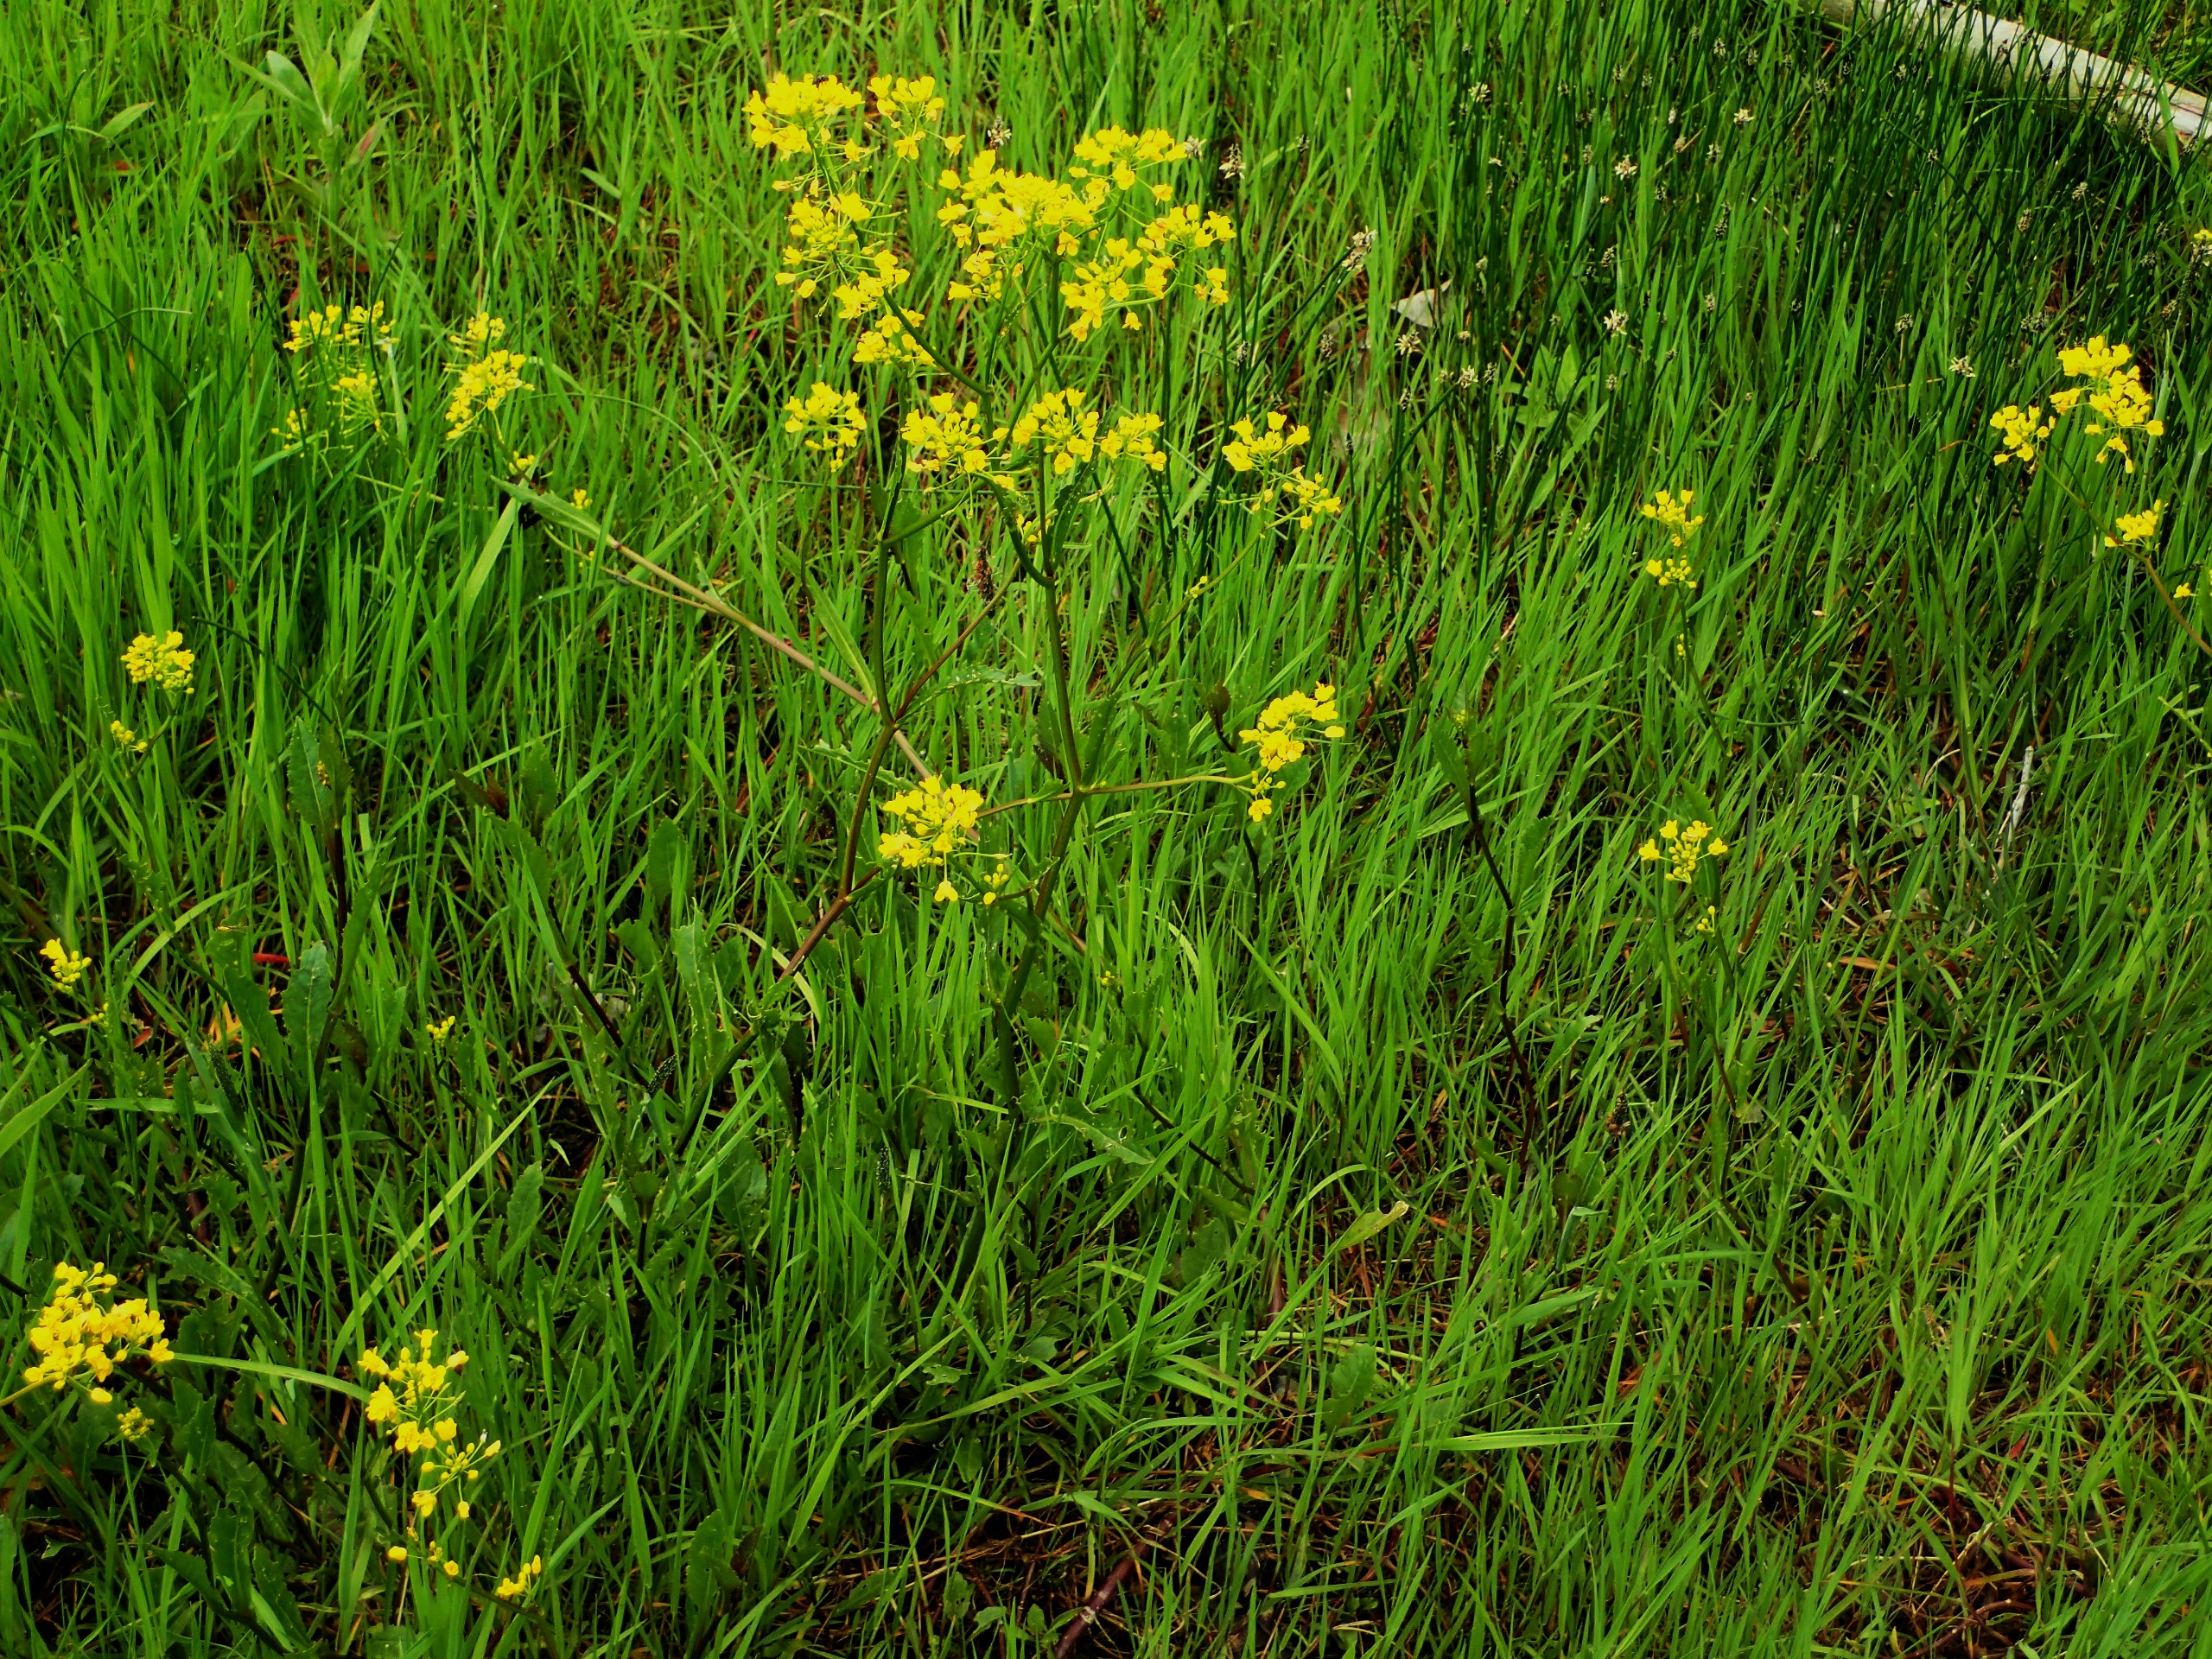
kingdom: Plantae
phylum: Tracheophyta
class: Magnoliopsida
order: Brassicales
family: Brassicaceae
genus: Rorippa
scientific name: Rorippa amphibia
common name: Vandpeberrod
